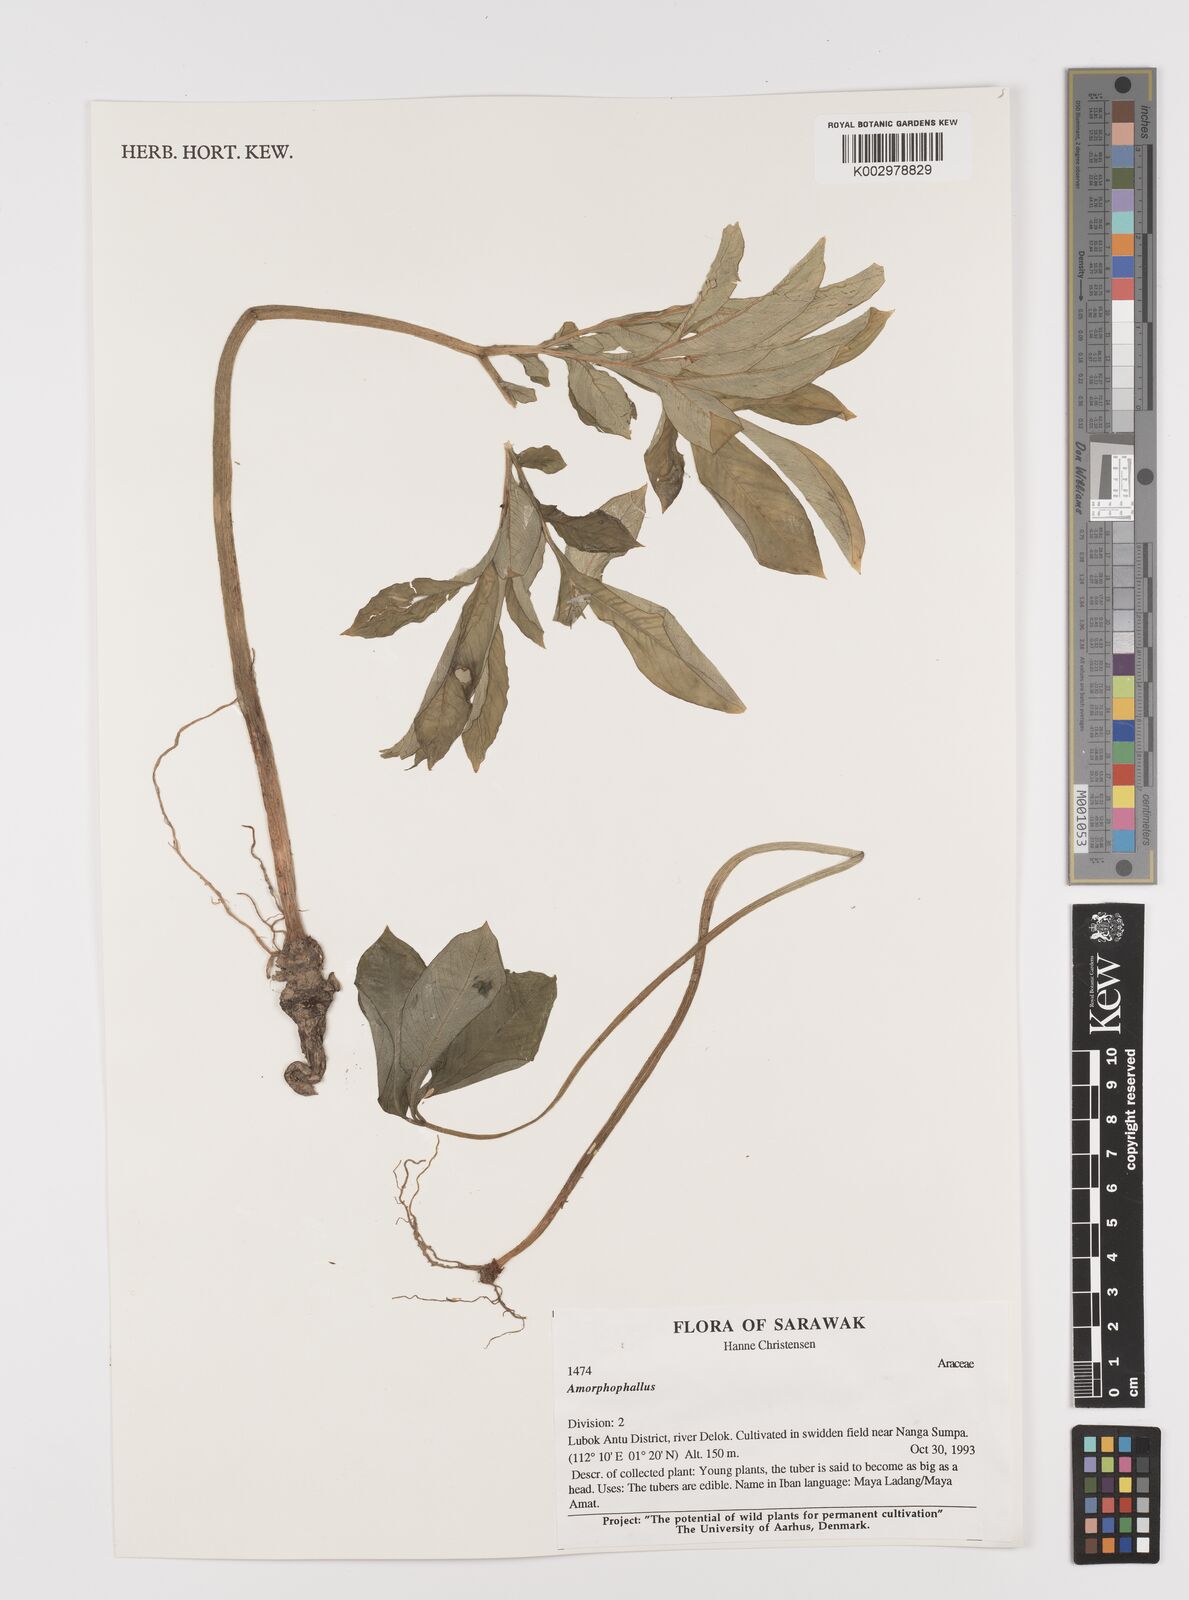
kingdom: Plantae
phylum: Tracheophyta
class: Liliopsida
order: Alismatales
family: Araceae
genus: Amorphophallus
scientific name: Amorphophallus
